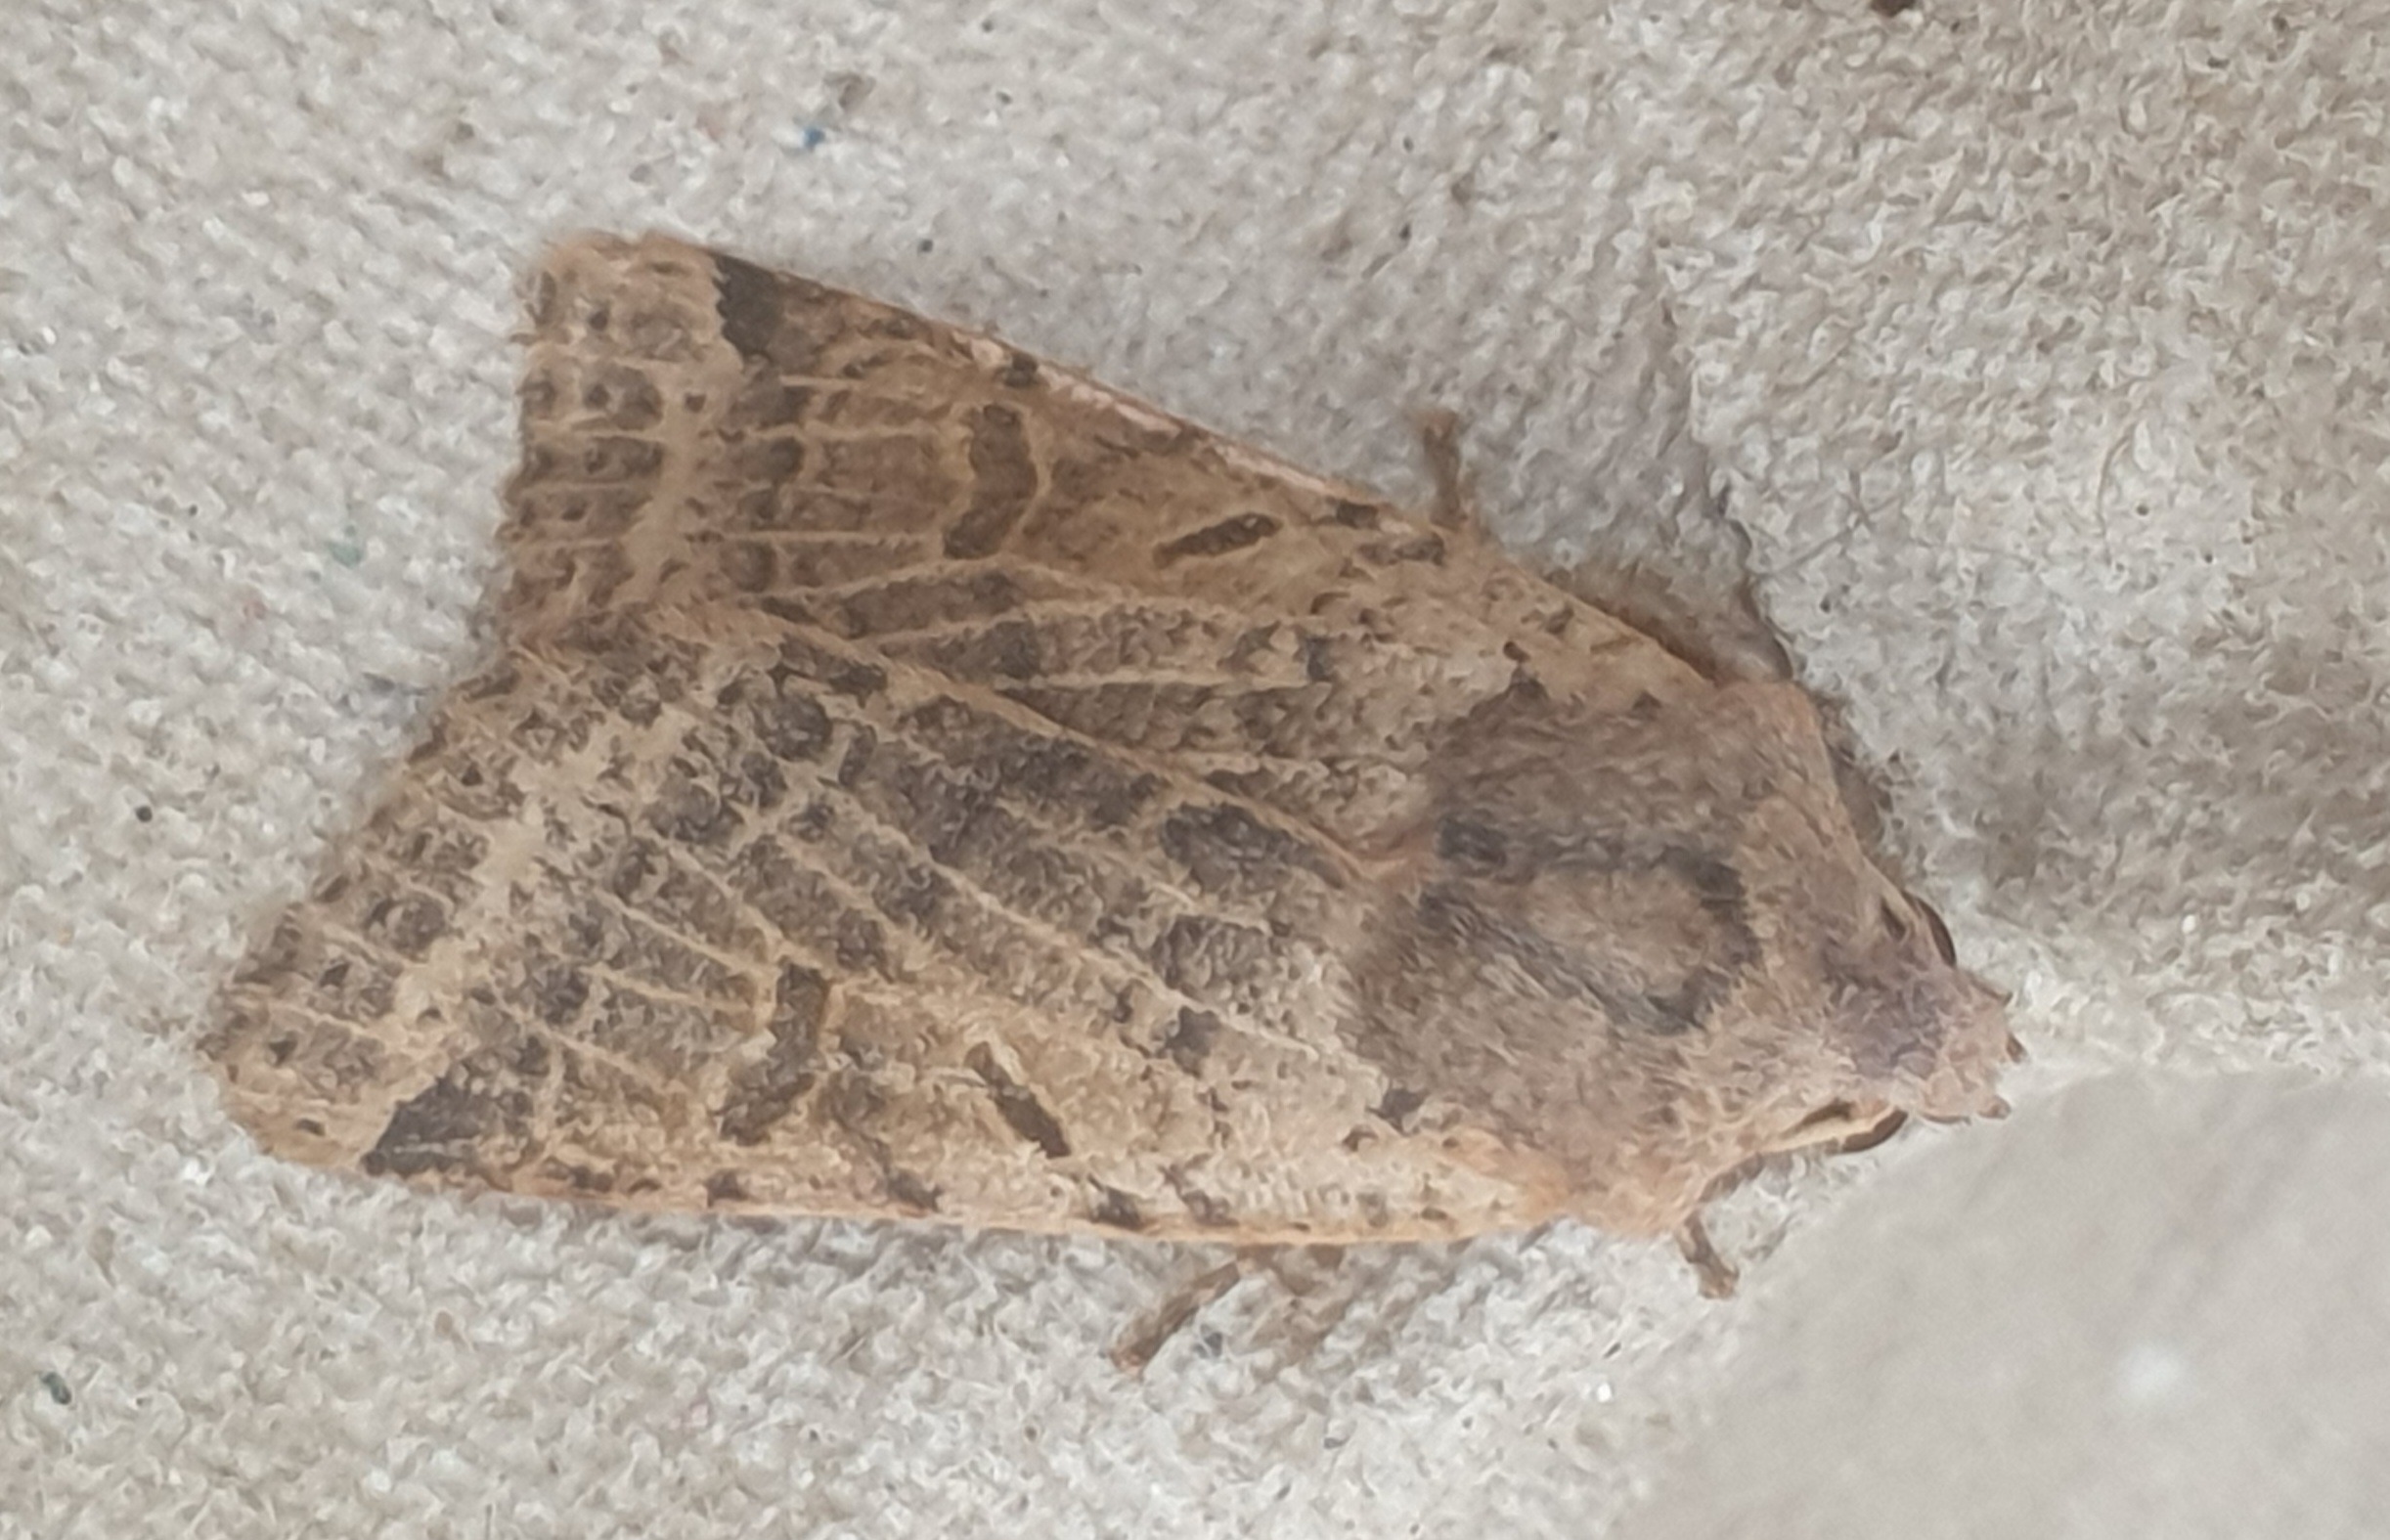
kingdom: Animalia
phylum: Arthropoda
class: Insecta
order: Lepidoptera
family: Noctuidae
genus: Agrochola
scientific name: Agrochola lychnidis
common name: Foranderlig jordfarveugle
